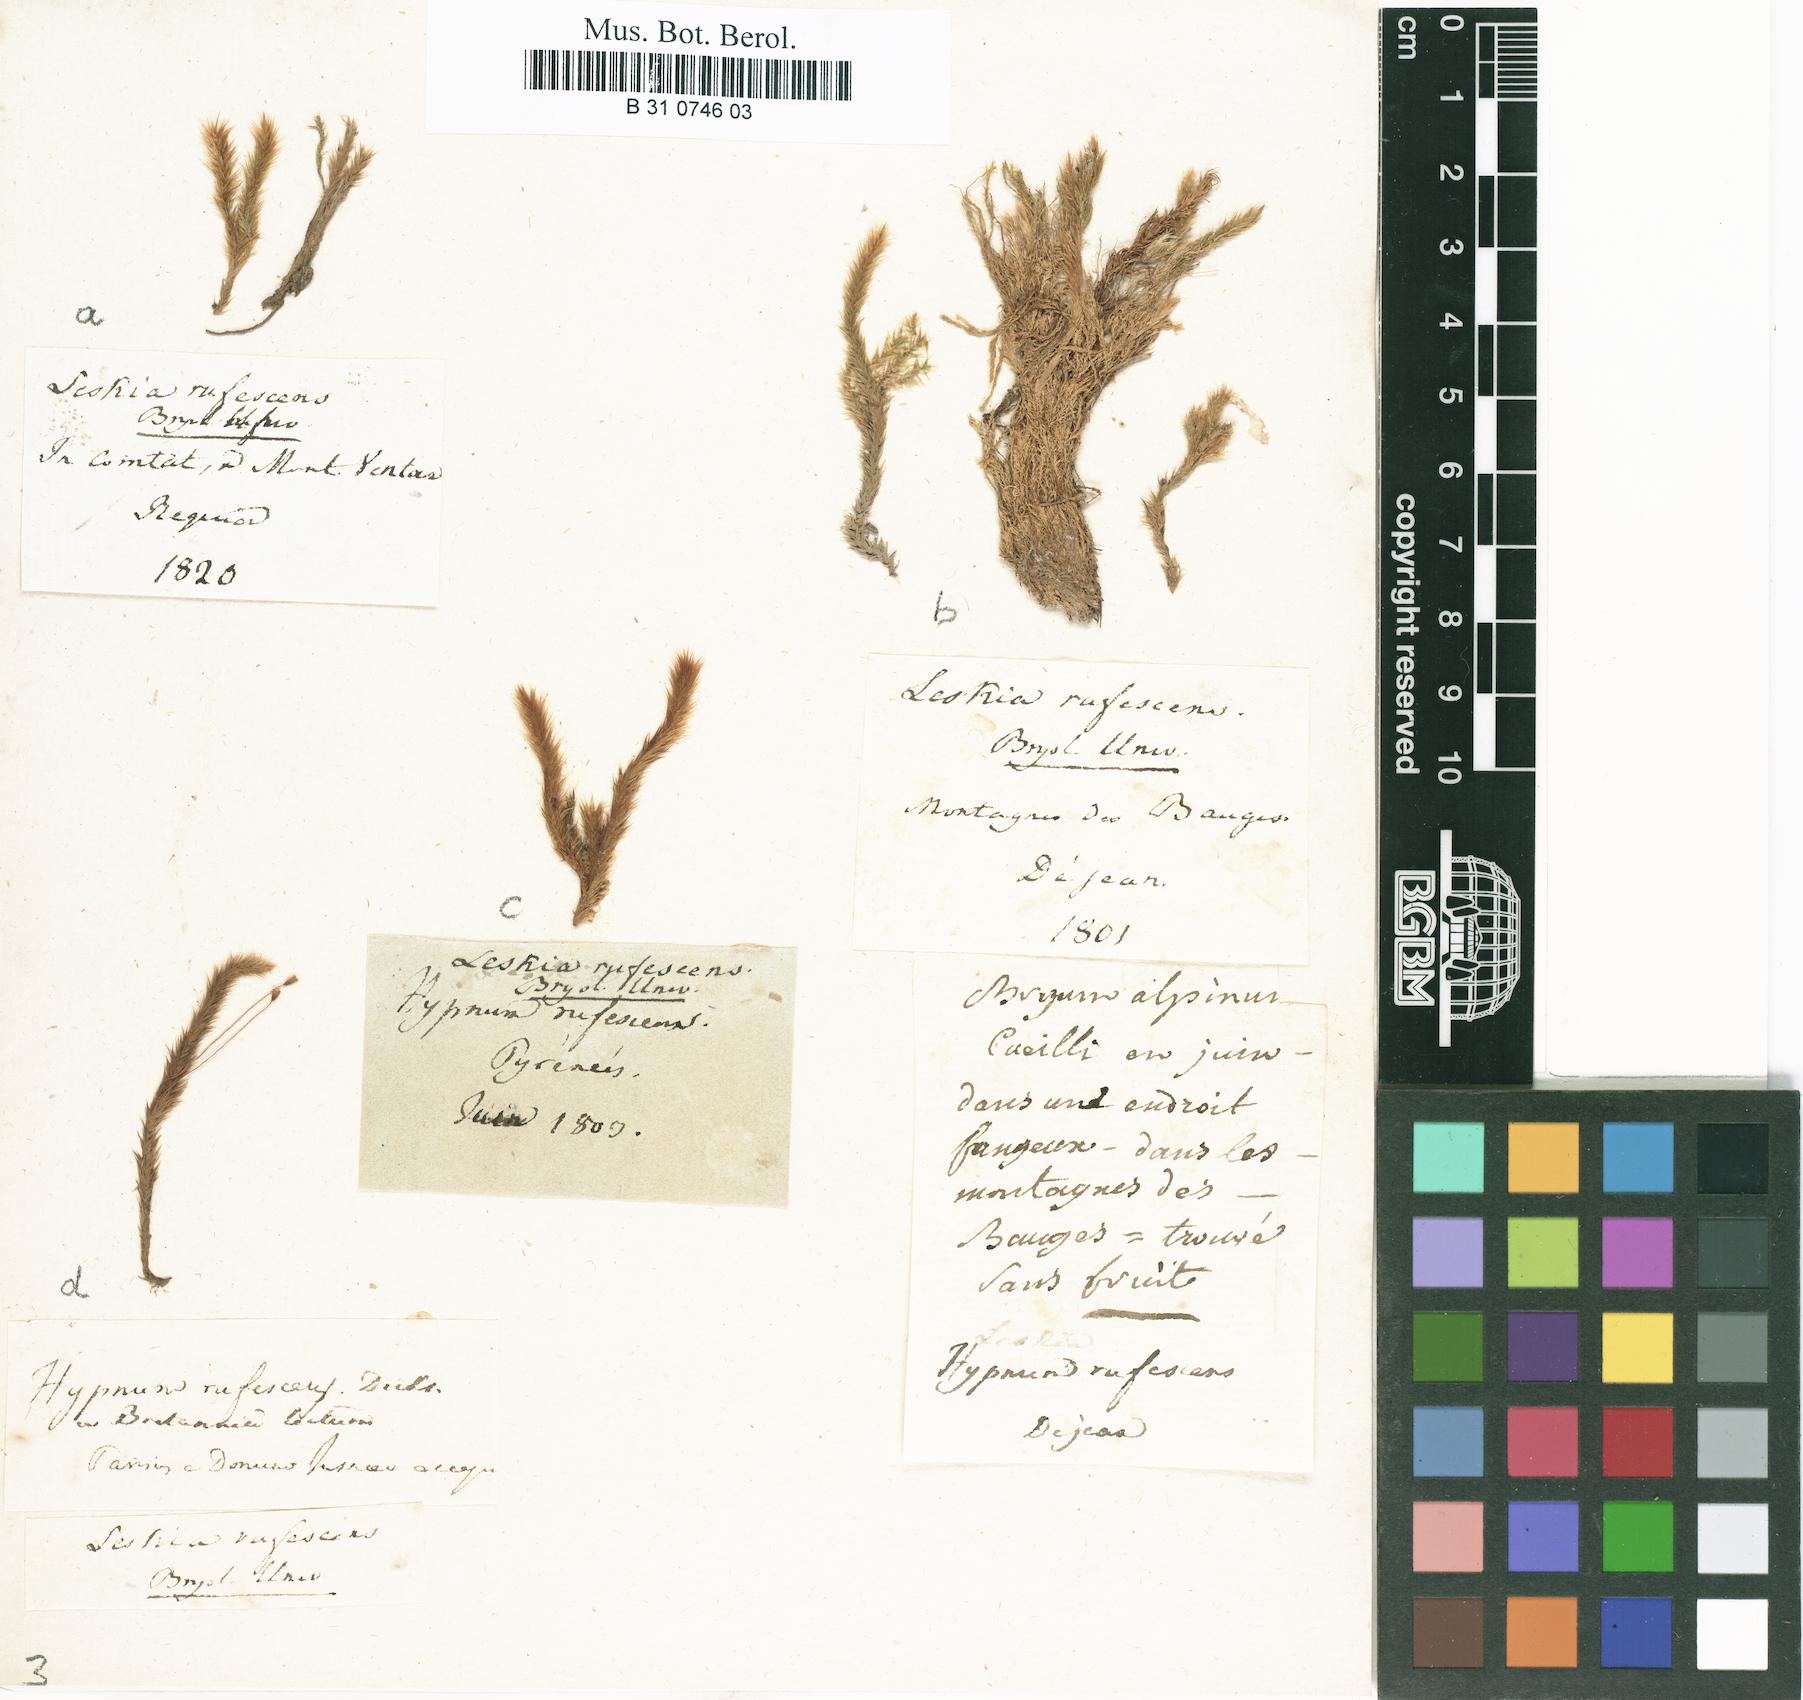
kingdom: Plantae
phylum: Bryophyta
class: Bryopsida
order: Hypnales
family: Plagiotheciaceae
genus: Orthothecium
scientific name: Orthothecium rufescens
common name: Red leskea
